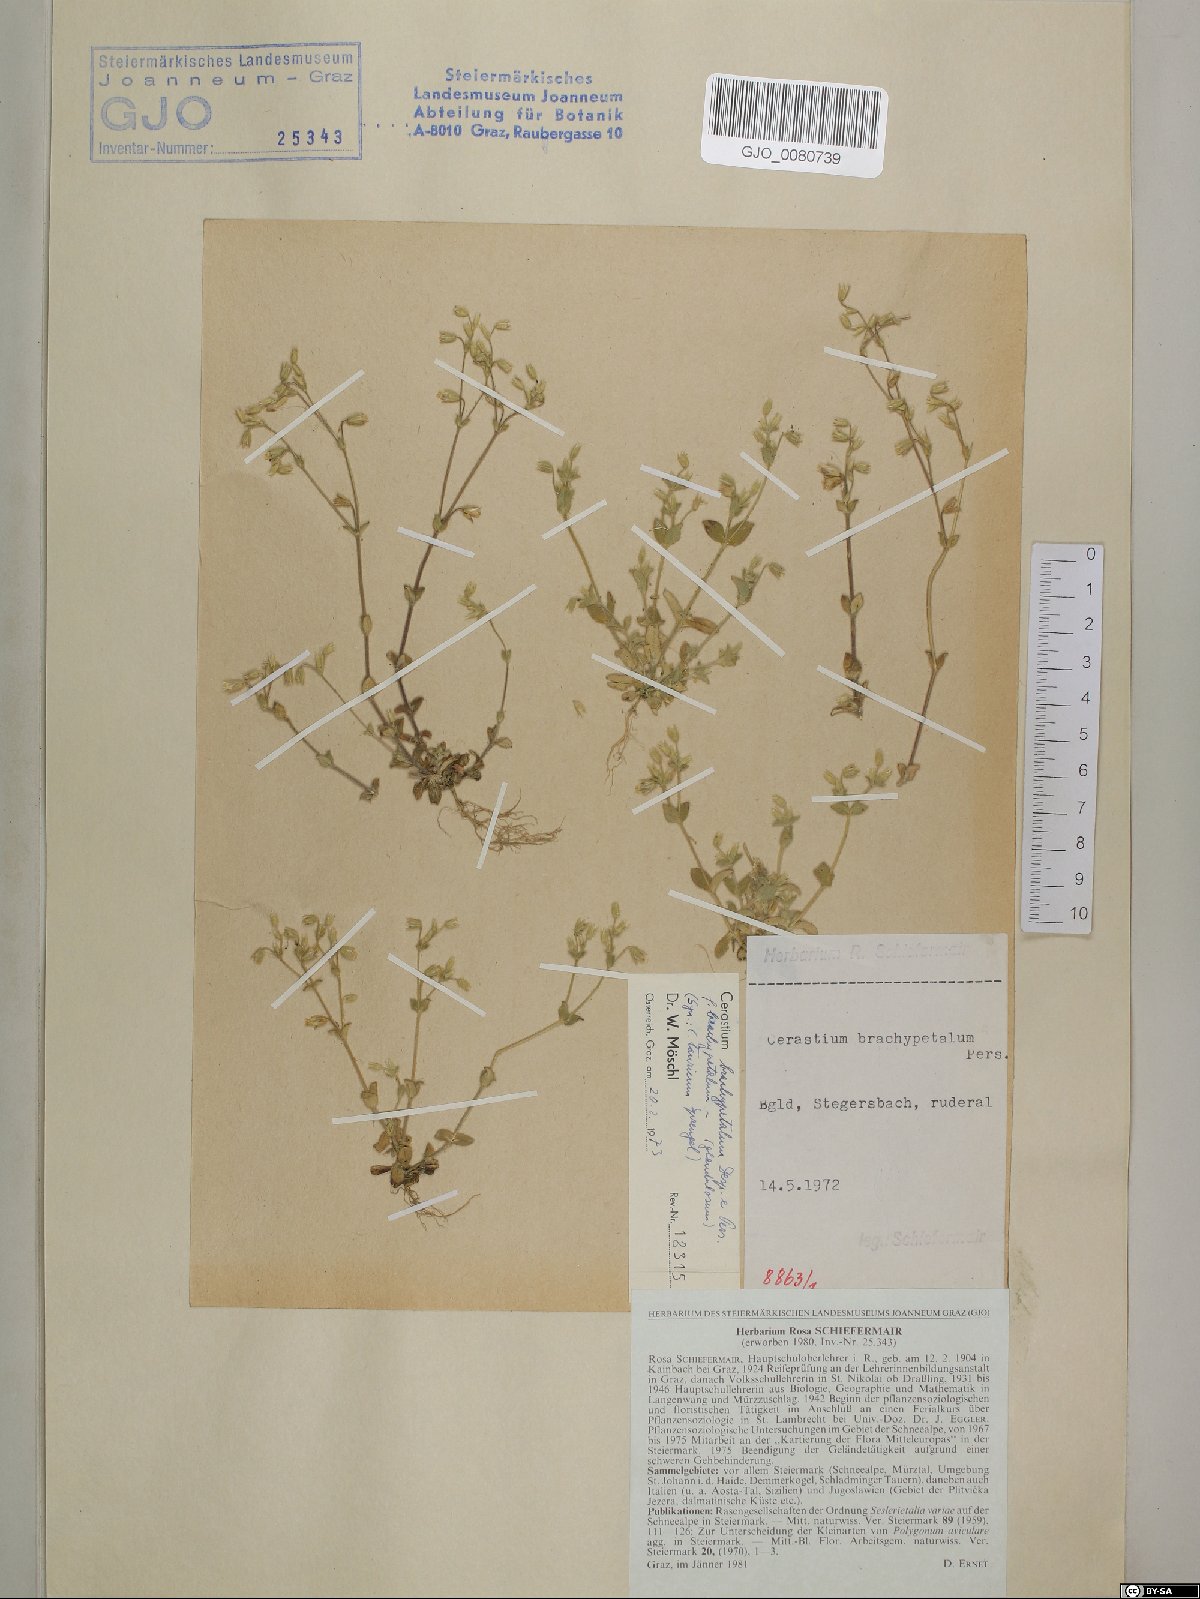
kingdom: Plantae
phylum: Tracheophyta
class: Magnoliopsida
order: Caryophyllales
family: Caryophyllaceae
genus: Cerastium
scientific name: Cerastium brachypetalum
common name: Grey mouse-ear
